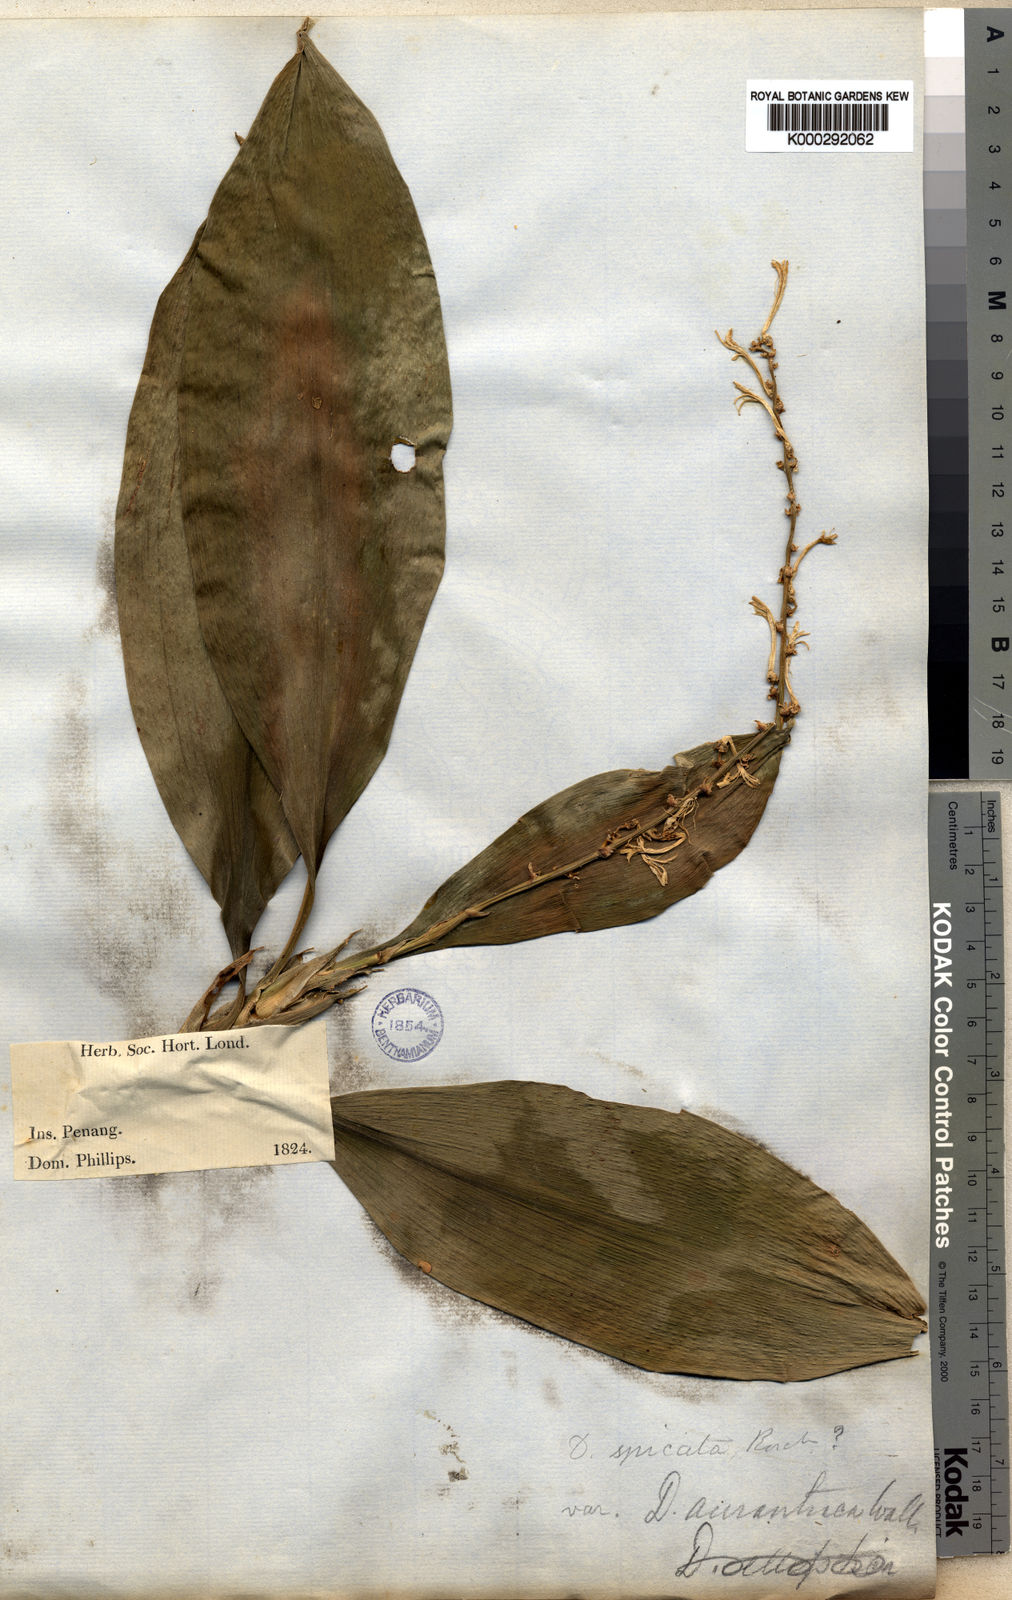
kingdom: Plantae
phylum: Tracheophyta
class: Liliopsida
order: Asparagales
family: Asparagaceae
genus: Dracaena
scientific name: Dracaena umbratica
